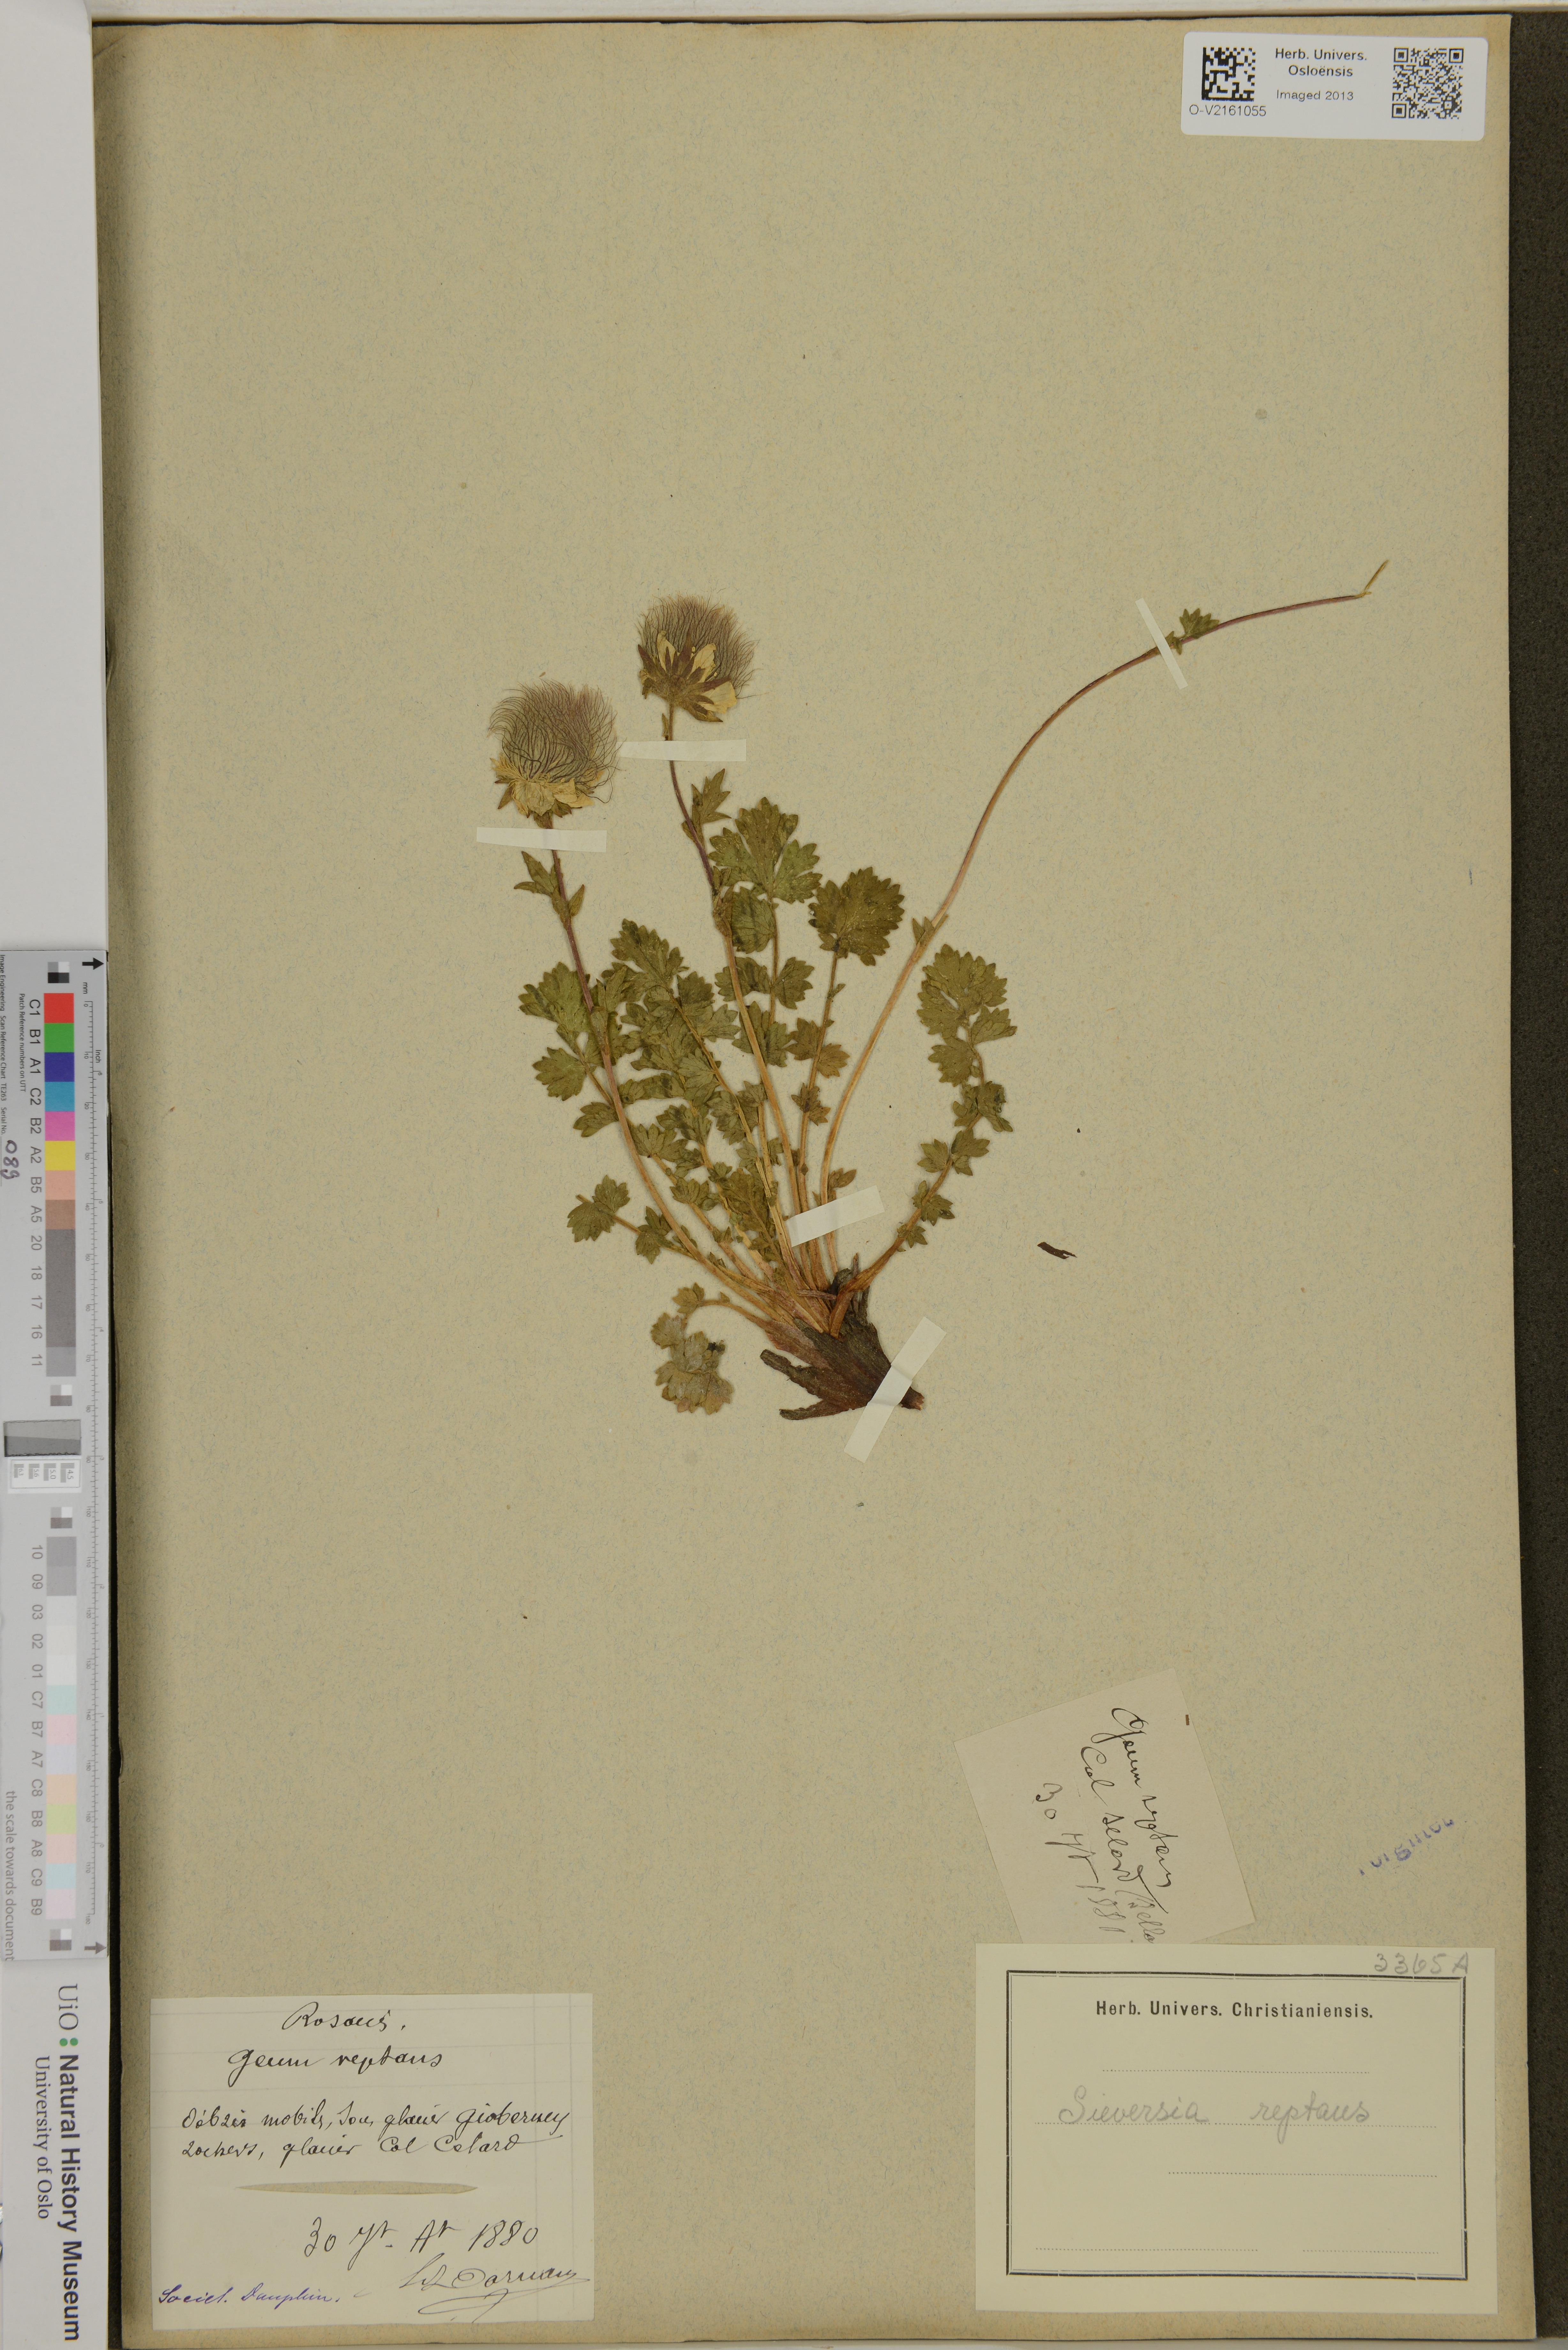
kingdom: Plantae
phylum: Tracheophyta
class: Magnoliopsida
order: Rosales
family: Rosaceae
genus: Geum
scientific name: Geum reptans
